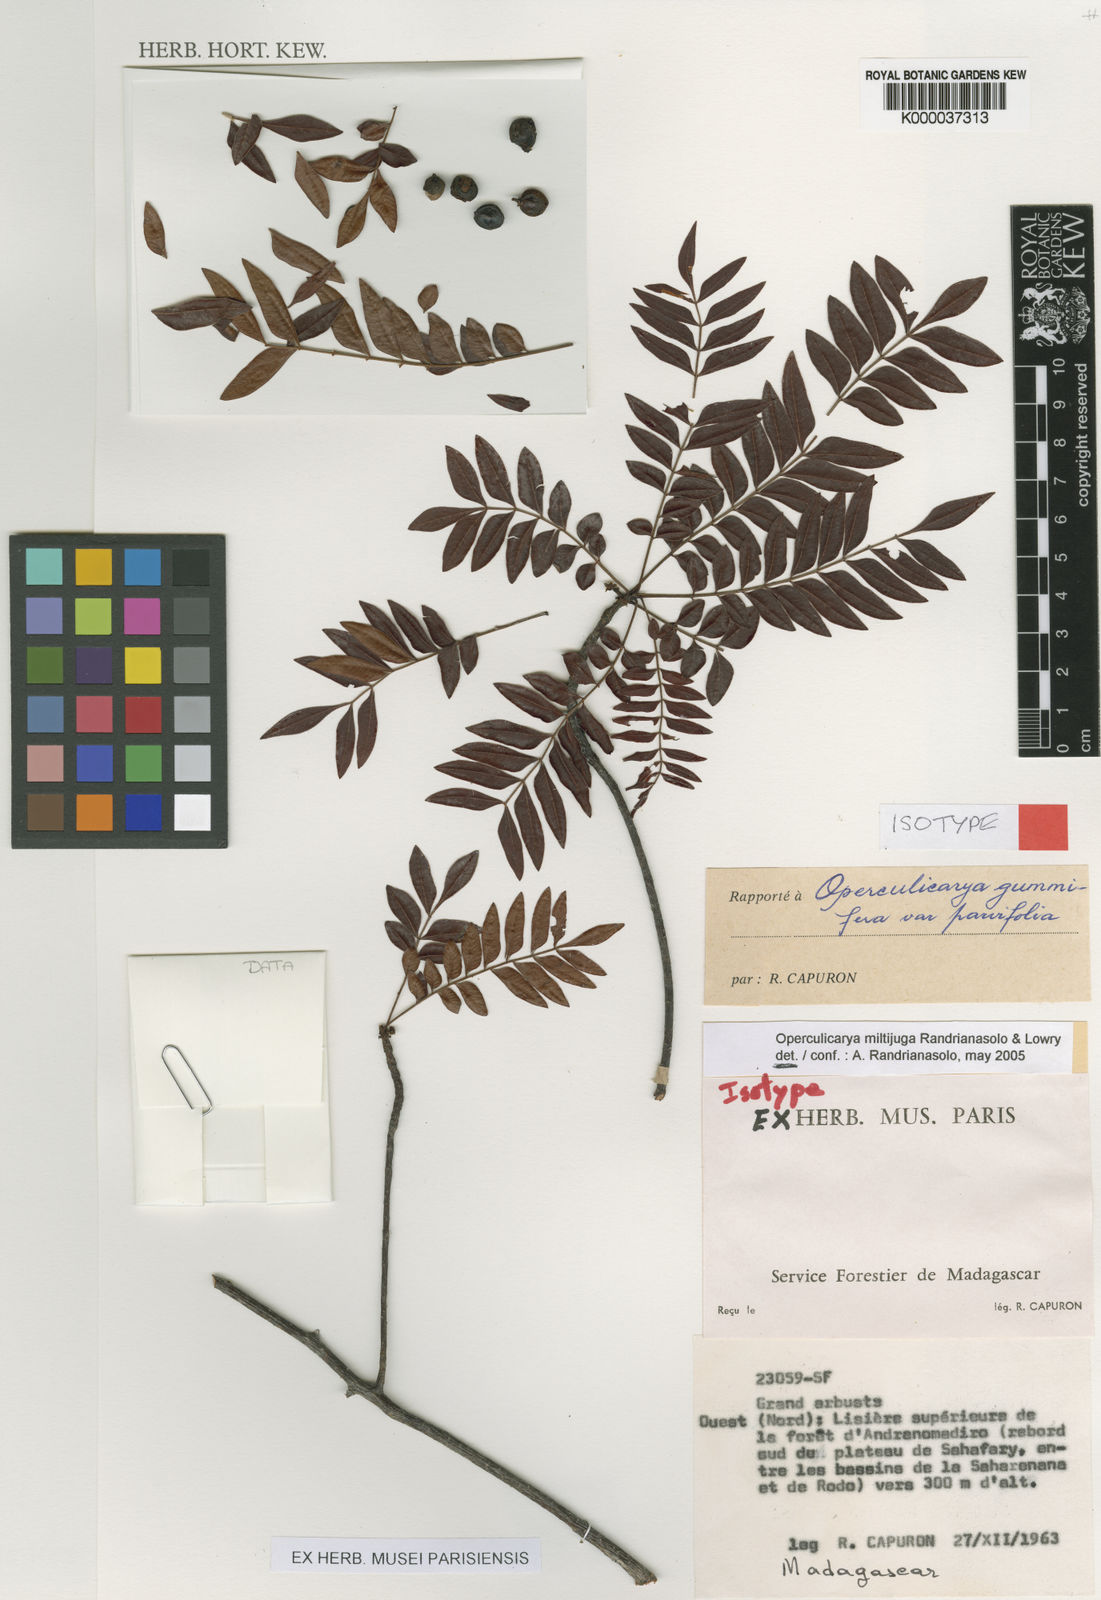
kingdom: Plantae
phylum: Tracheophyta
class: Magnoliopsida
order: Sapindales
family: Anacardiaceae
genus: Operculicarya
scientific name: Operculicarya gummifera
